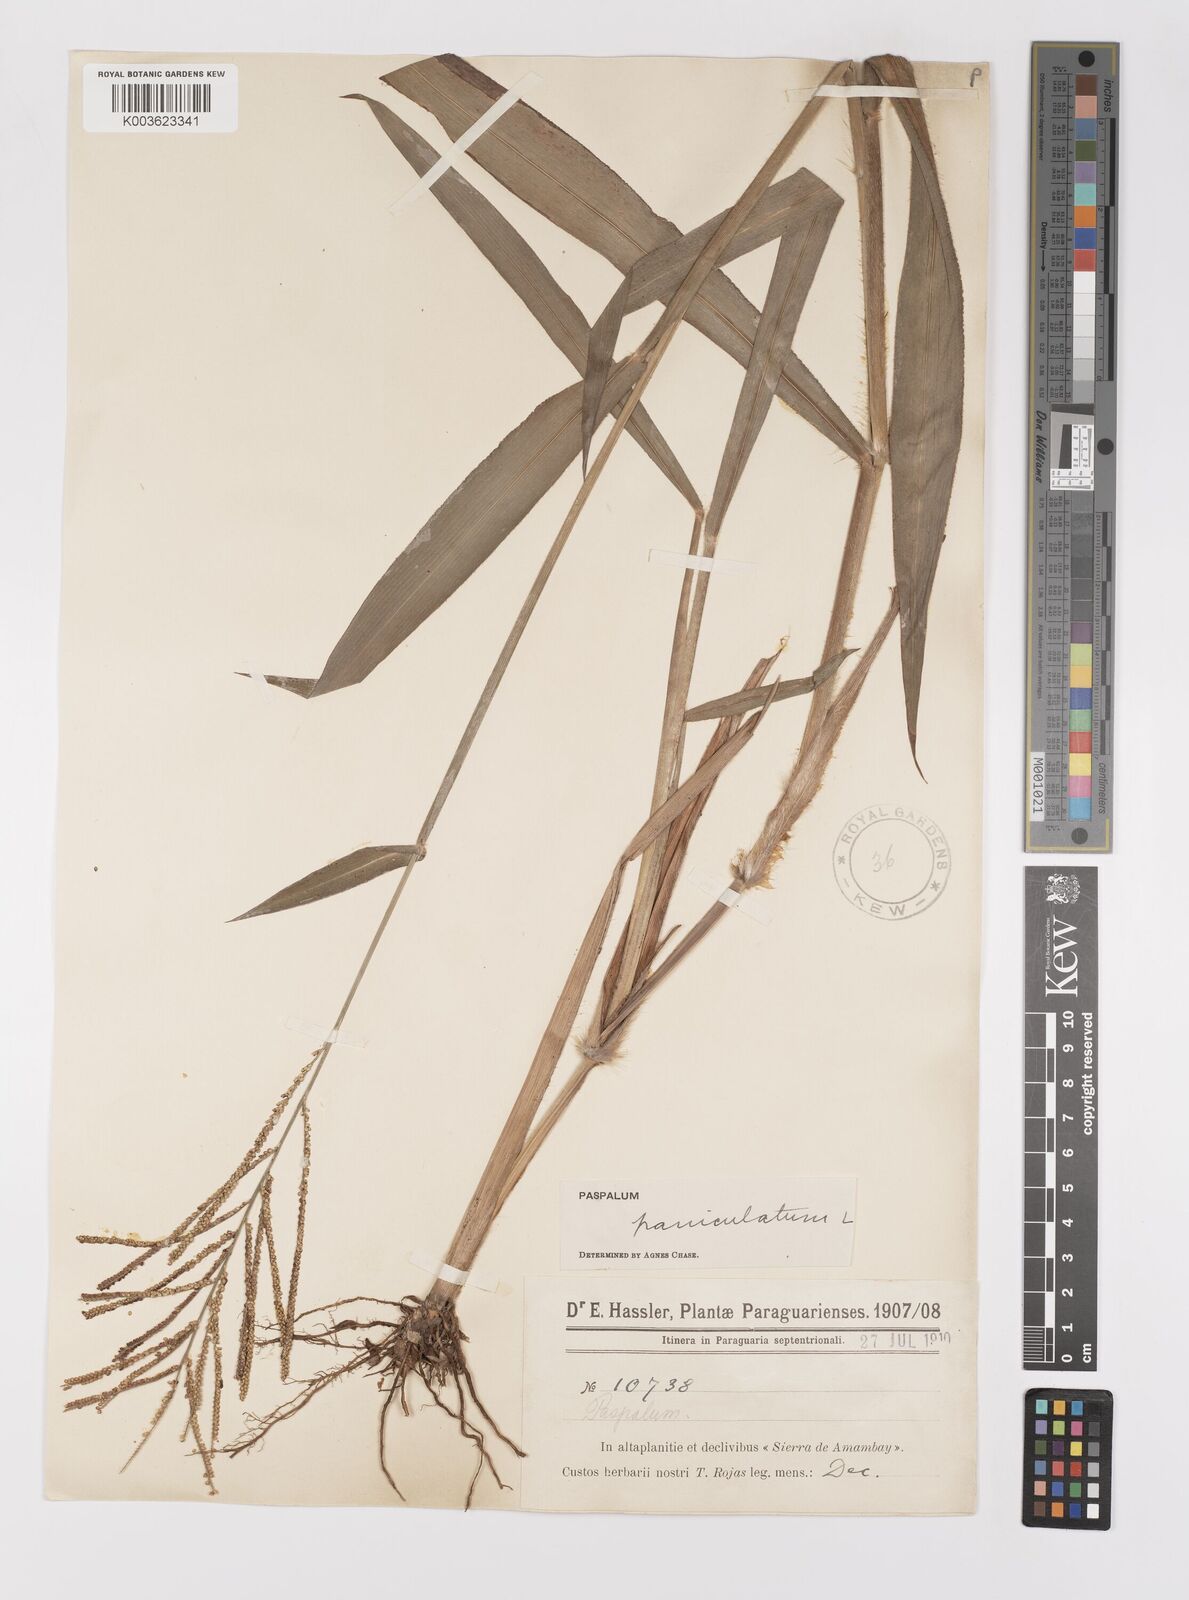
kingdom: Plantae
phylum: Tracheophyta
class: Liliopsida
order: Poales
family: Poaceae
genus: Paspalum
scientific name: Paspalum paniculatum
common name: Arrocillo
